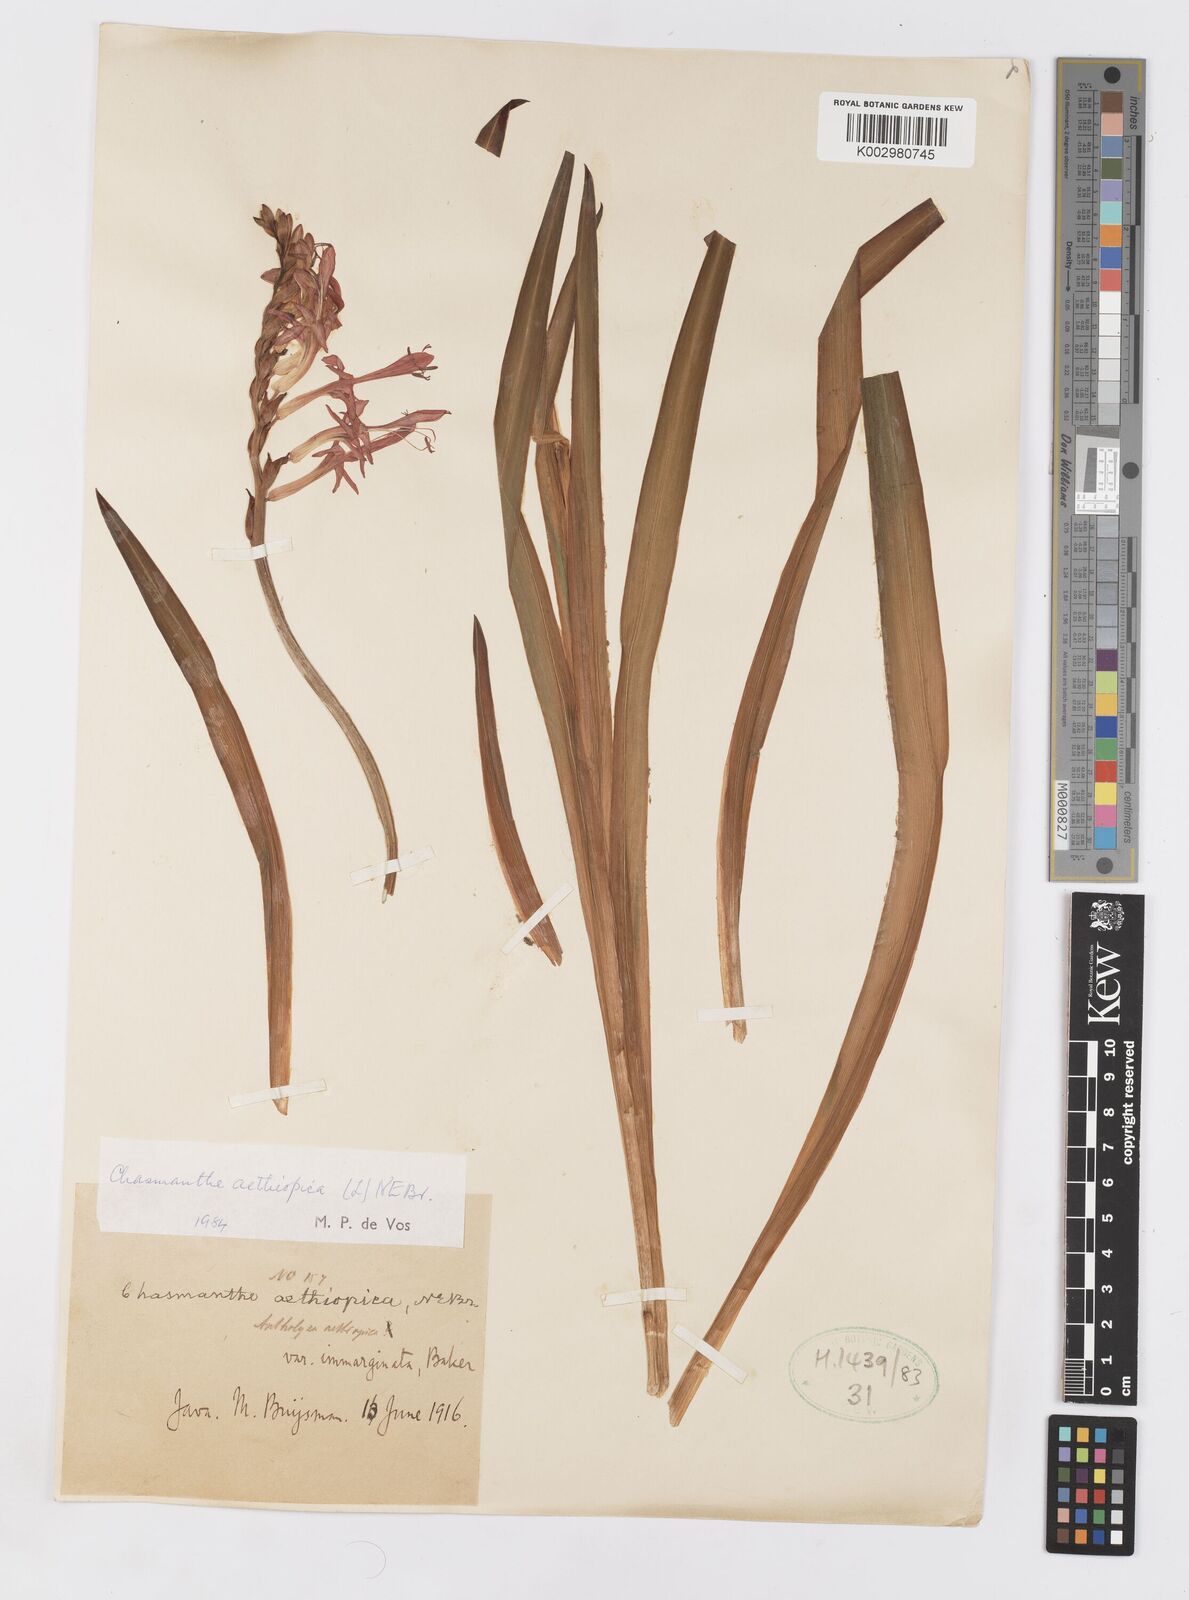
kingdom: Plantae
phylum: Tracheophyta
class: Liliopsida
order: Asparagales
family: Iridaceae
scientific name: Iridaceae
